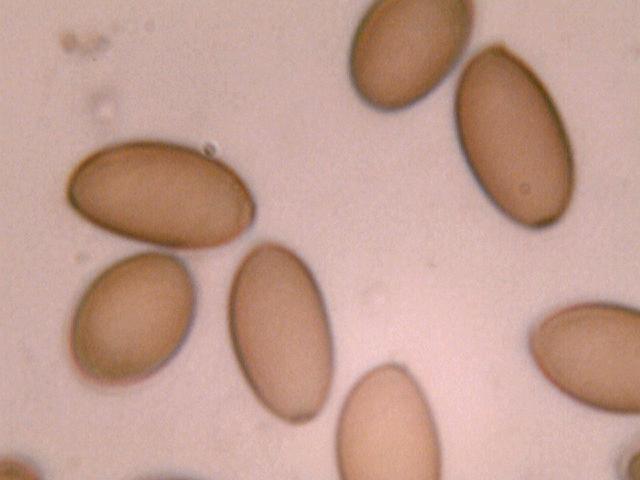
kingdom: Fungi
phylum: Basidiomycota
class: Agaricomycetes
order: Agaricales
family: Strophariaceae
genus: Protostropharia
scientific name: Protostropharia semiglobata
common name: halvkugleformet bredblad
